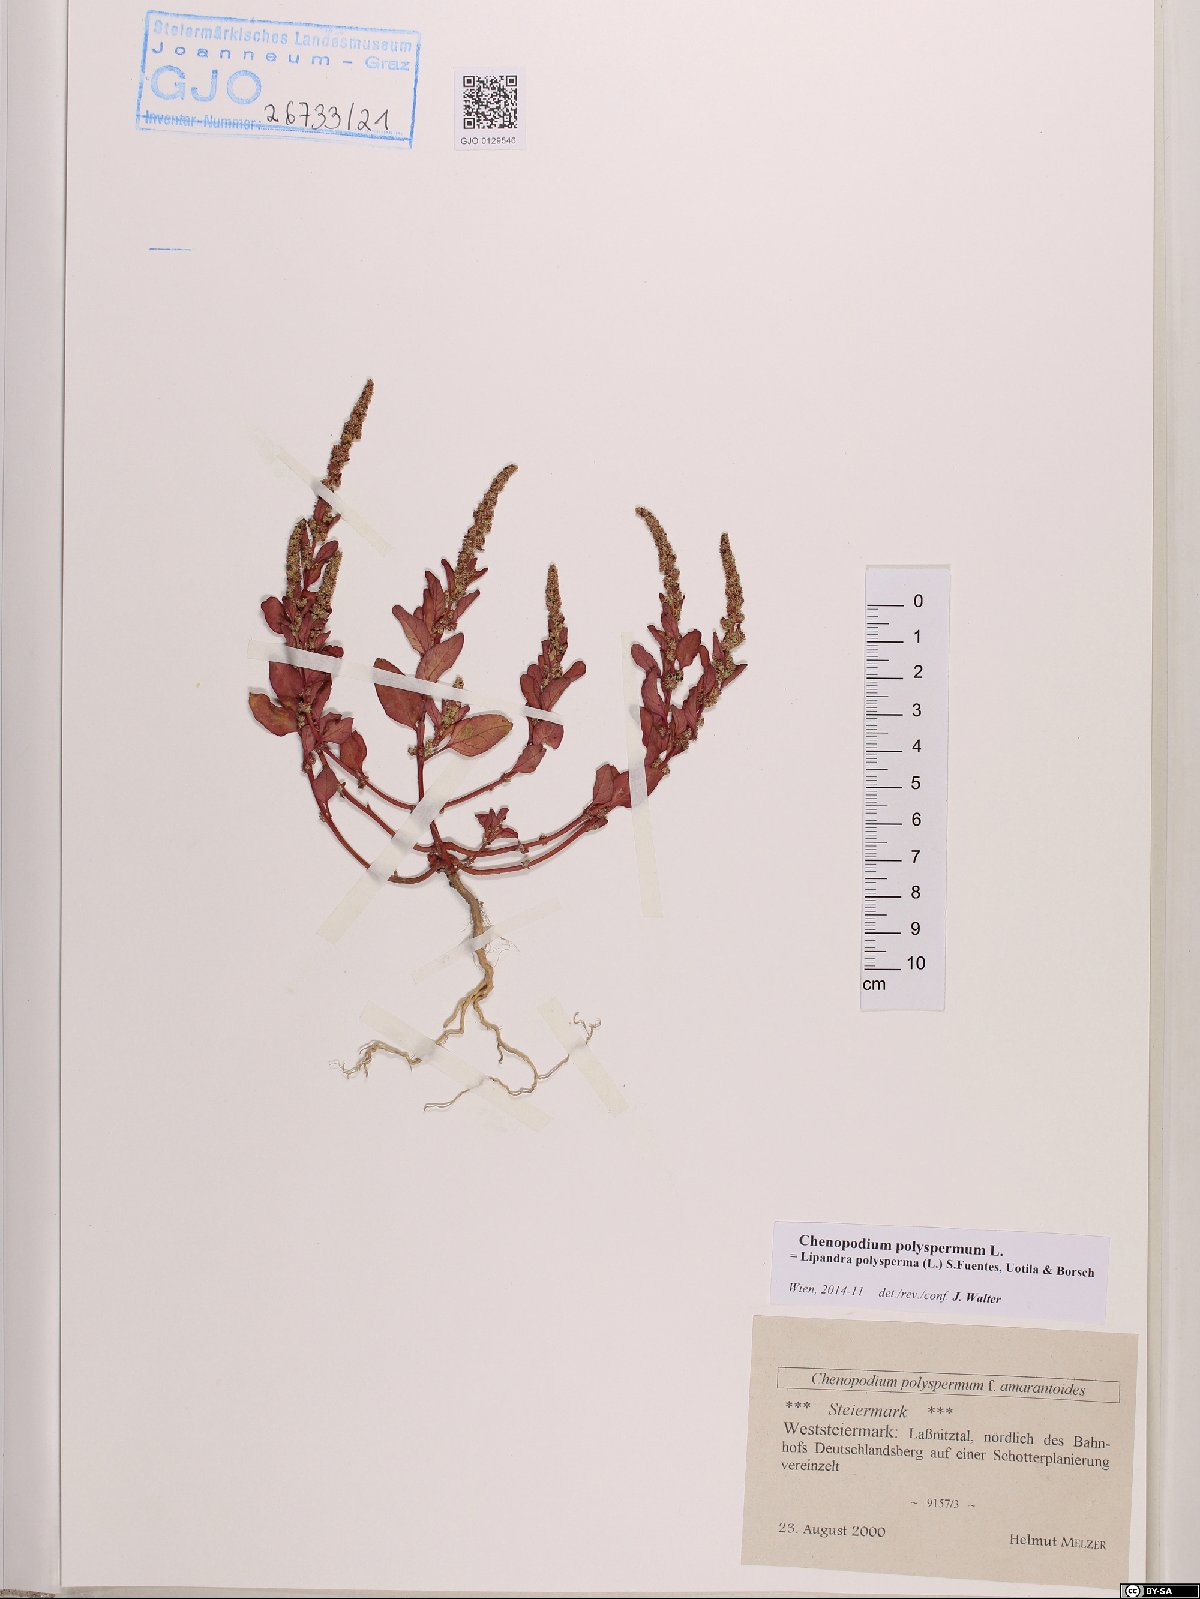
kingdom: Plantae
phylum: Tracheophyta
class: Magnoliopsida
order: Caryophyllales
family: Amaranthaceae
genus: Lipandra
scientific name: Lipandra polysperma
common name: Many-seed goosefoot
